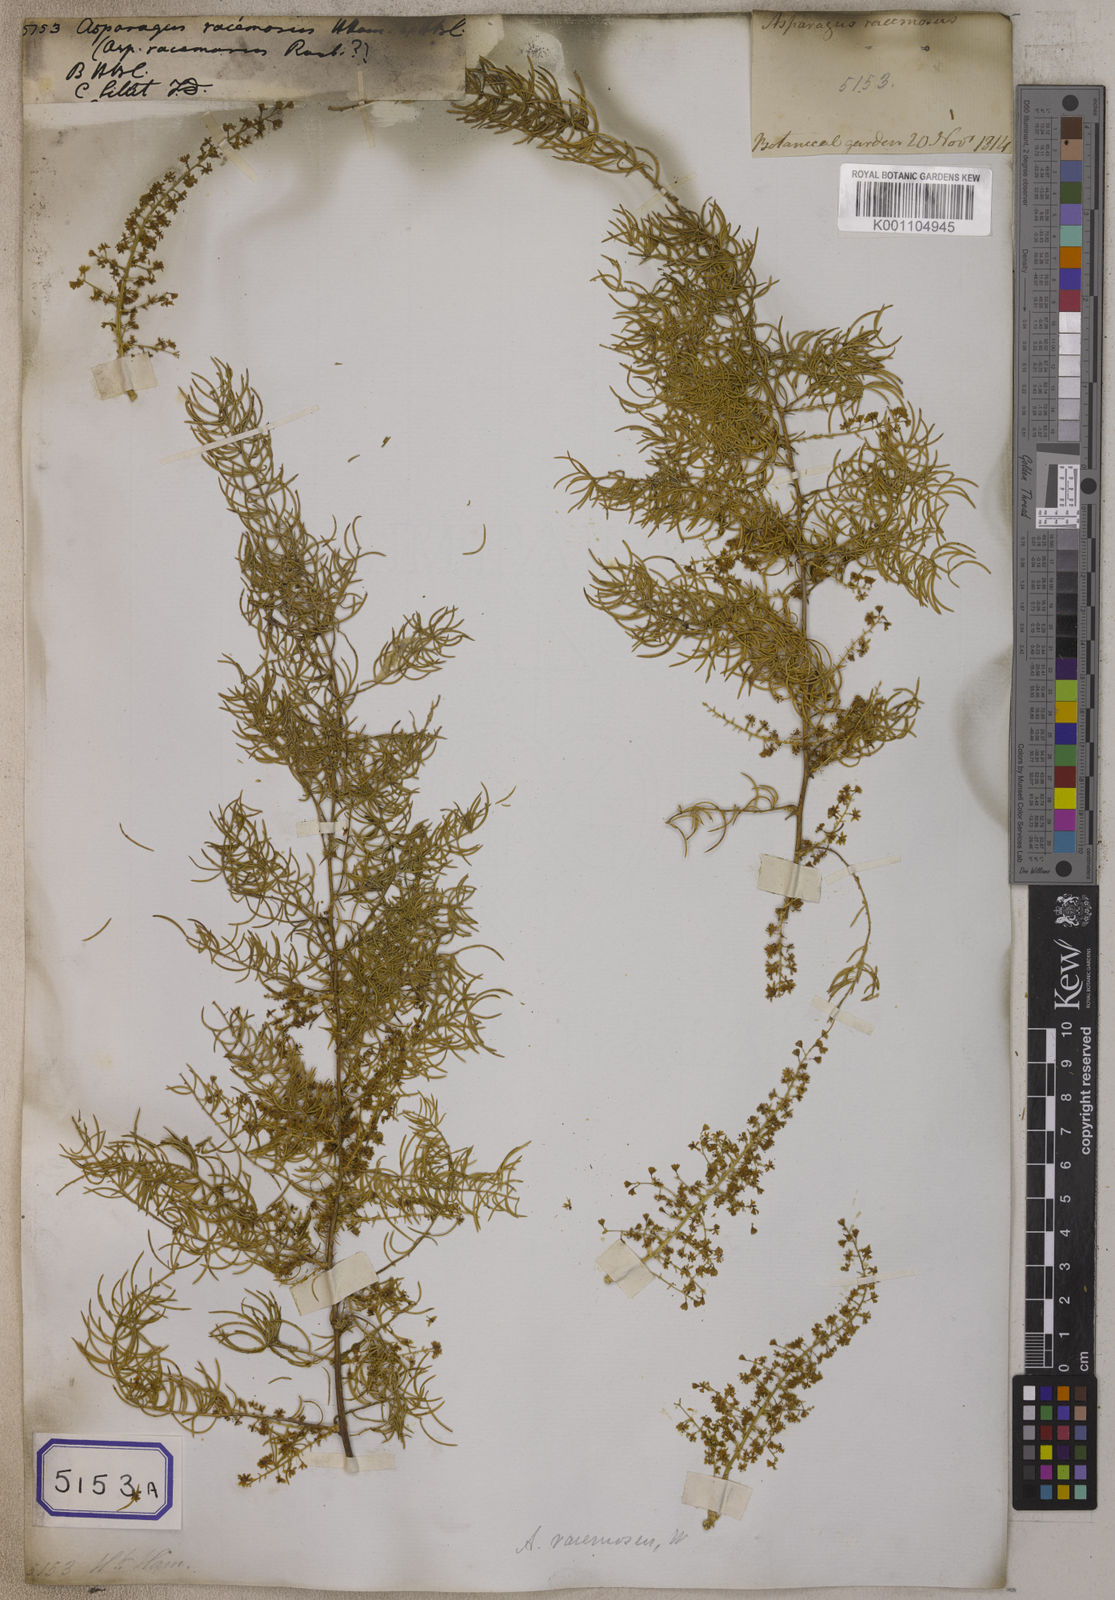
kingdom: Plantae
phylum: Tracheophyta
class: Liliopsida
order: Asparagales
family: Asparagaceae
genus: Asparagus
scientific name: Asparagus racemosus
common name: Asparagus-fern
